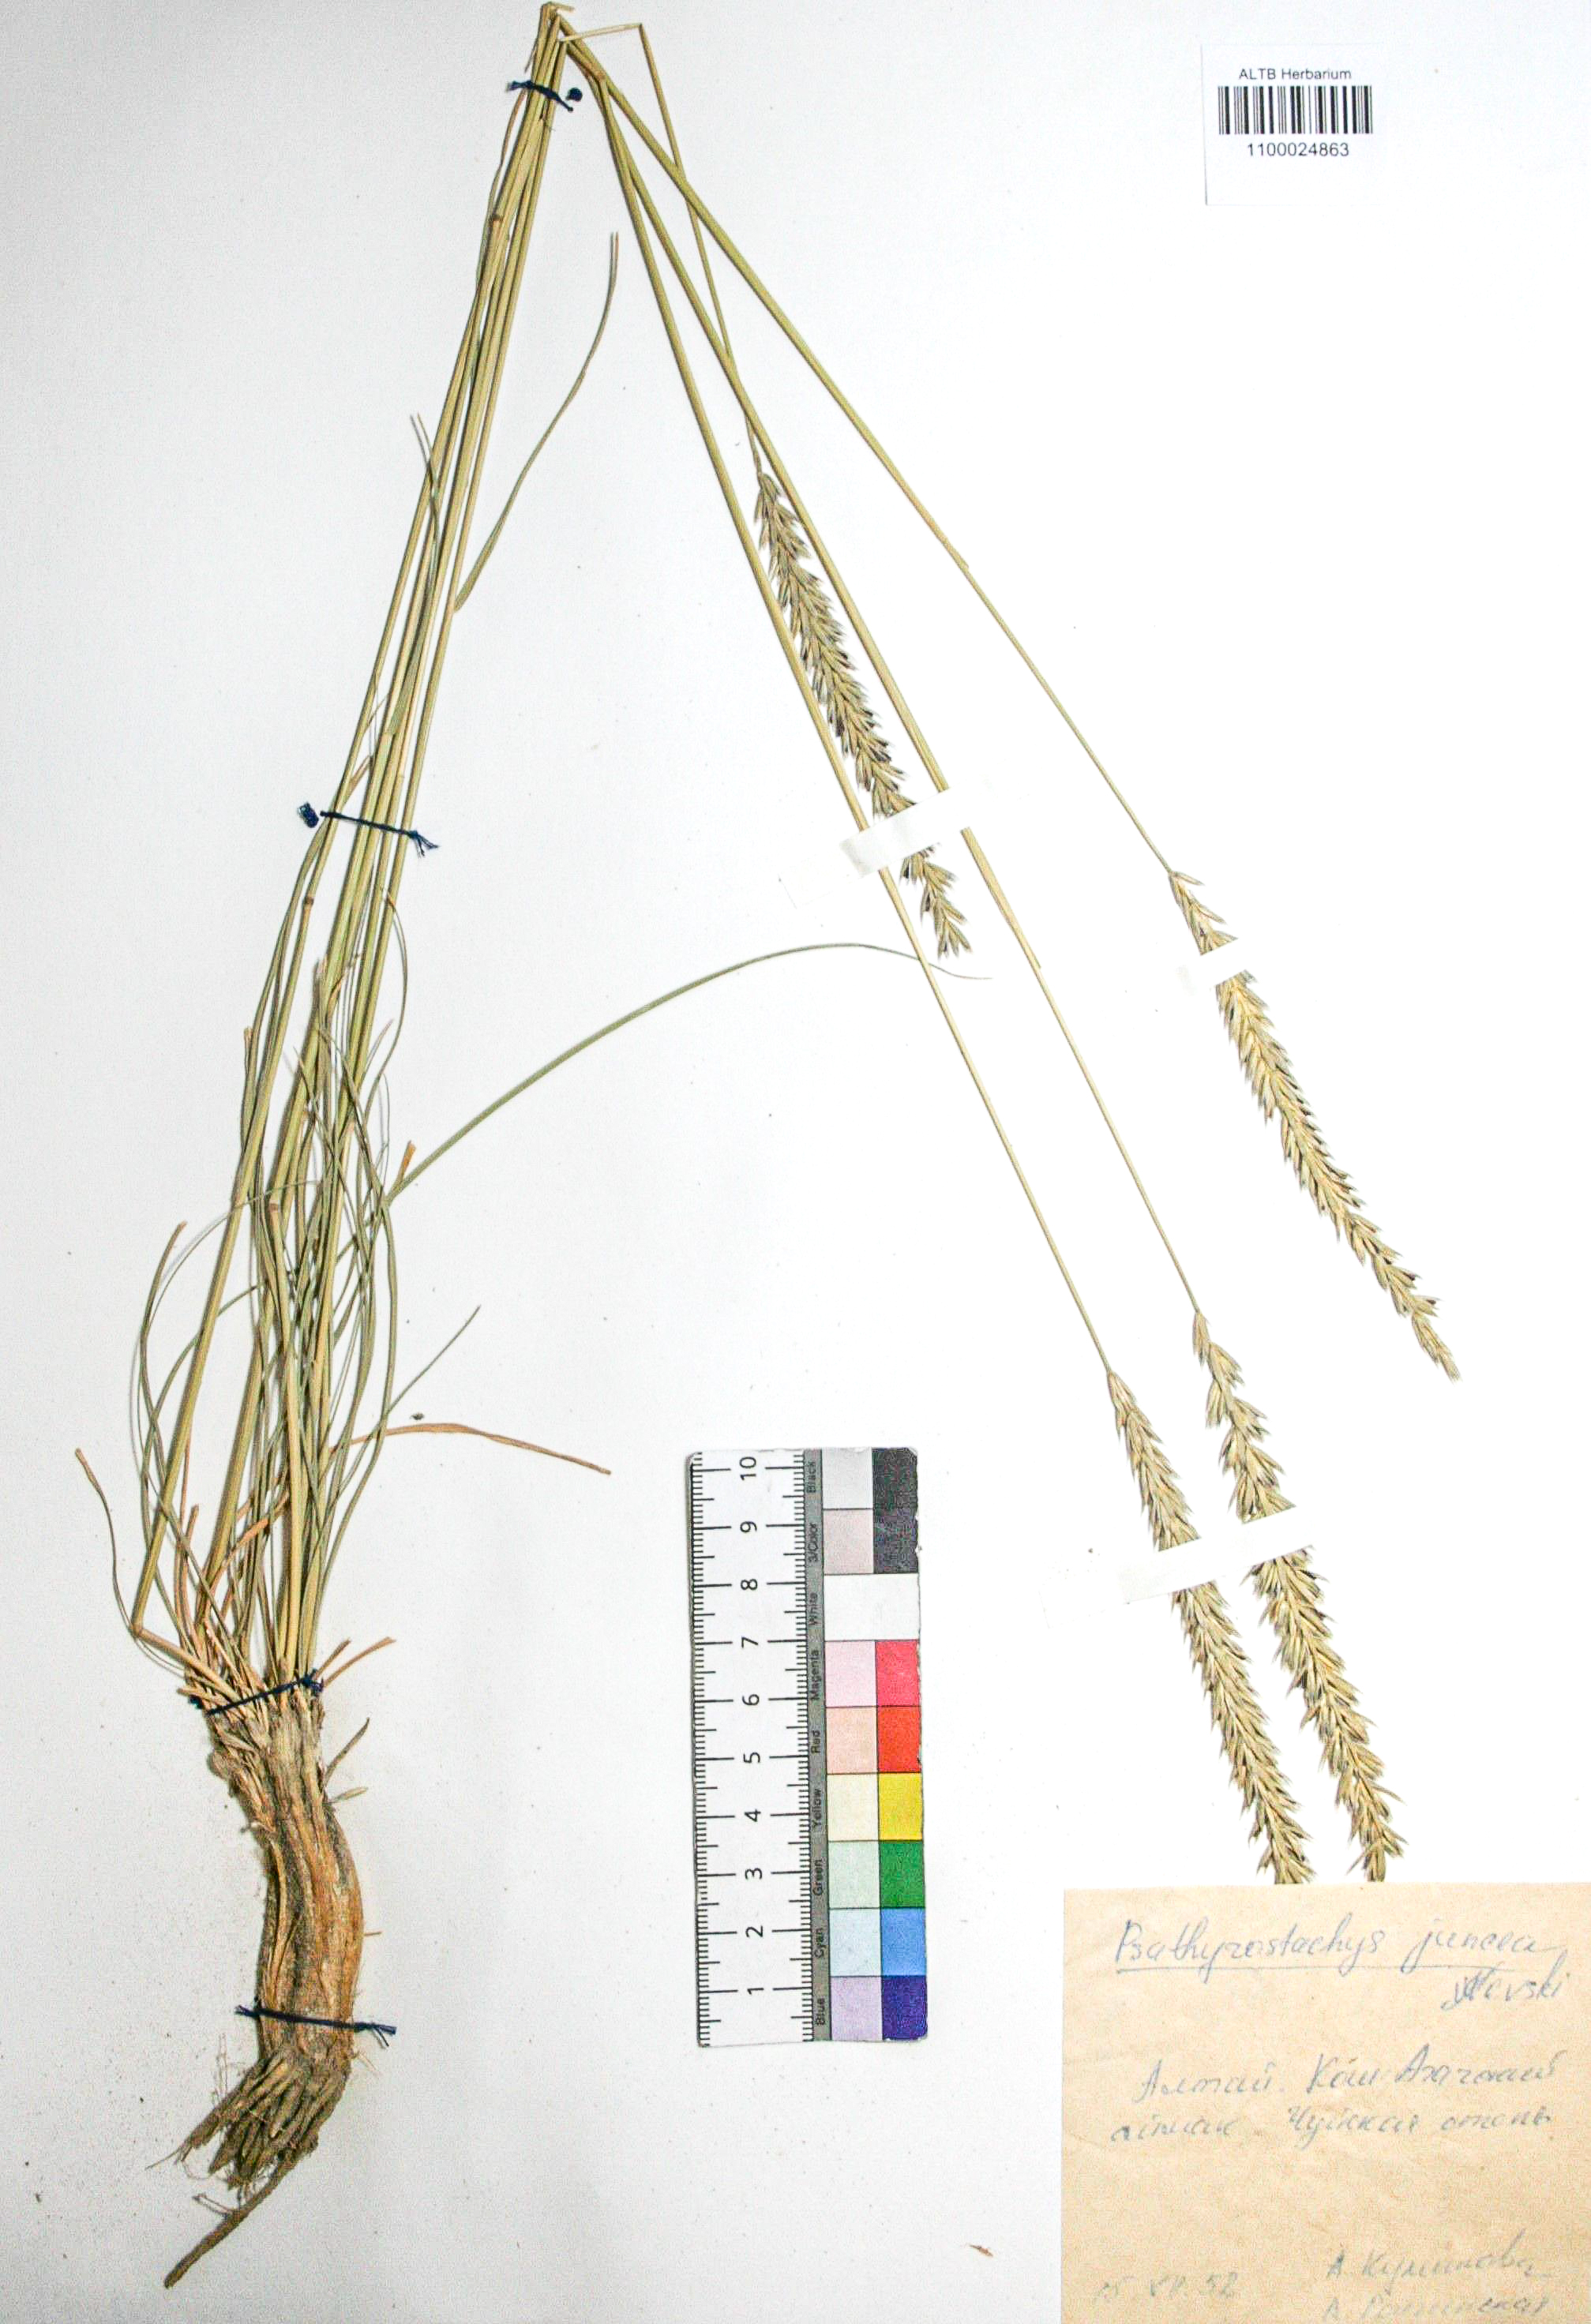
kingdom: Plantae
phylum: Tracheophyta
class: Liliopsida
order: Poales
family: Poaceae
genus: Psathyrostachys
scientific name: Psathyrostachys juncea
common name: Russian wildrye
